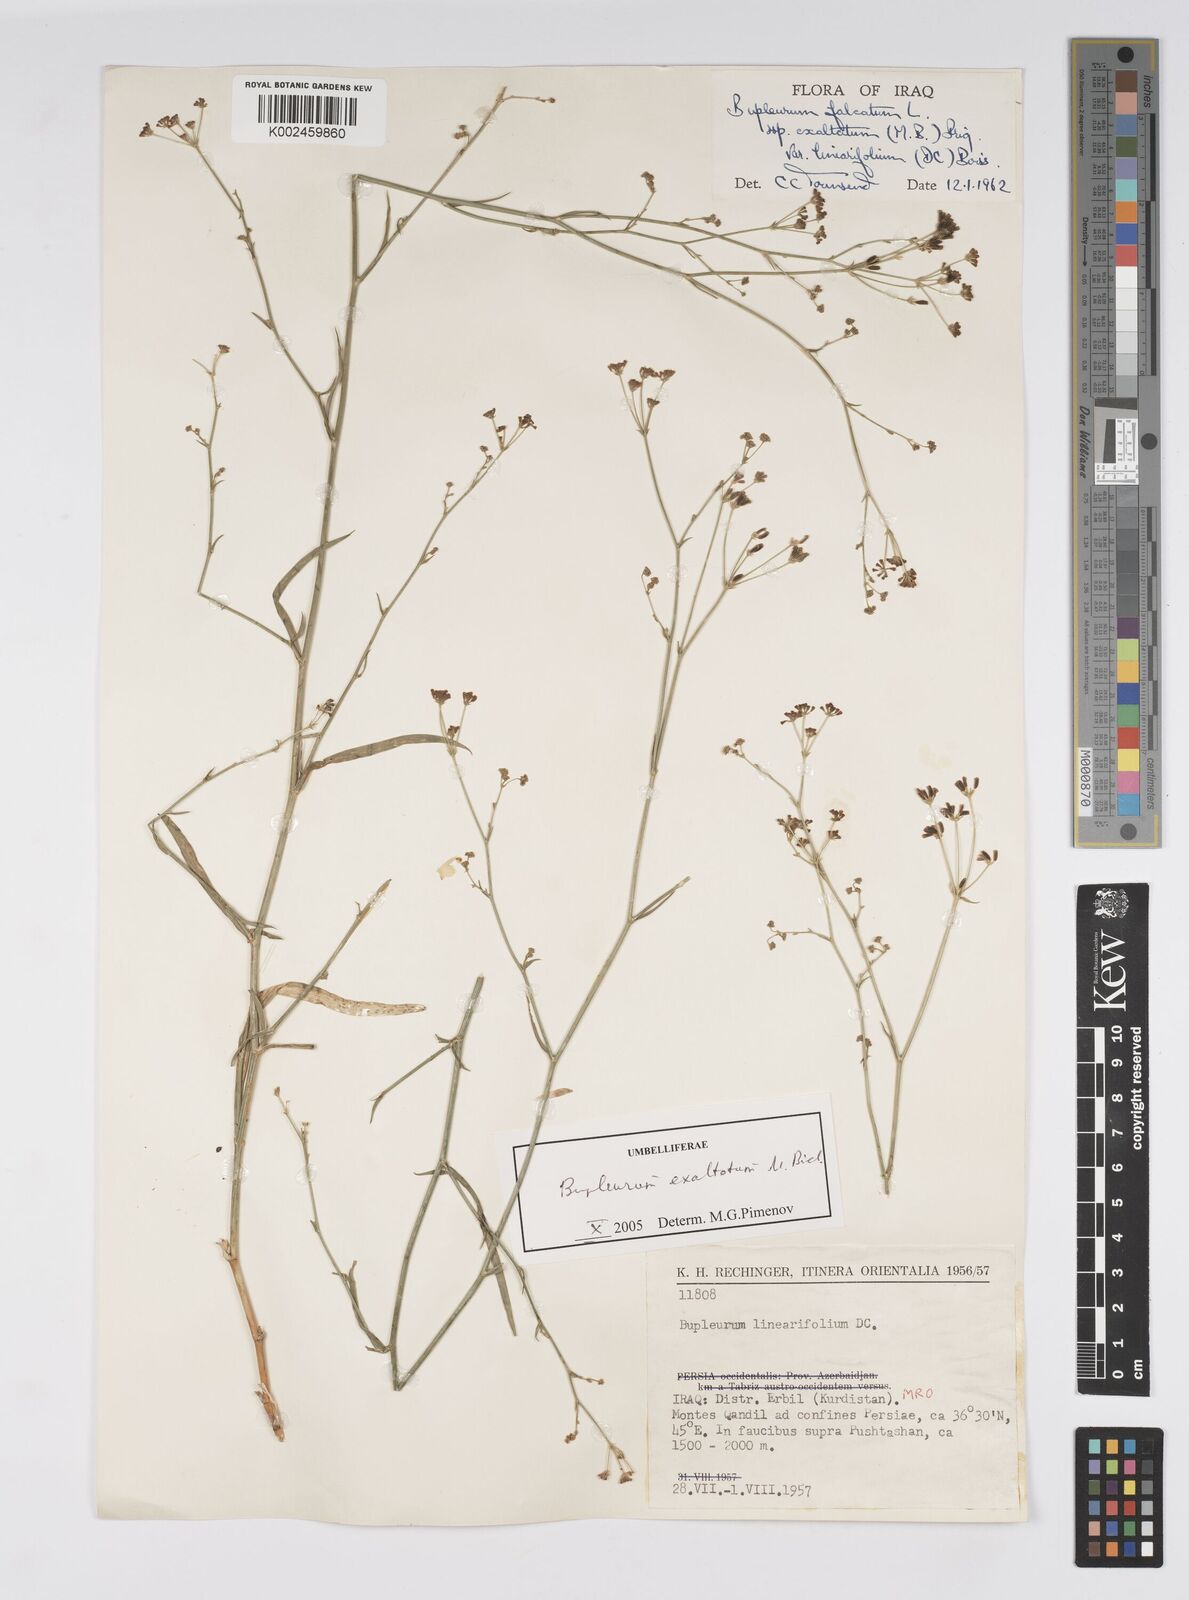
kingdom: Plantae
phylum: Tracheophyta
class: Magnoliopsida
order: Apiales
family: Apiaceae
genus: Bupleurum
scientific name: Bupleurum falcatum
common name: Sickle-leaved hare's-ear
